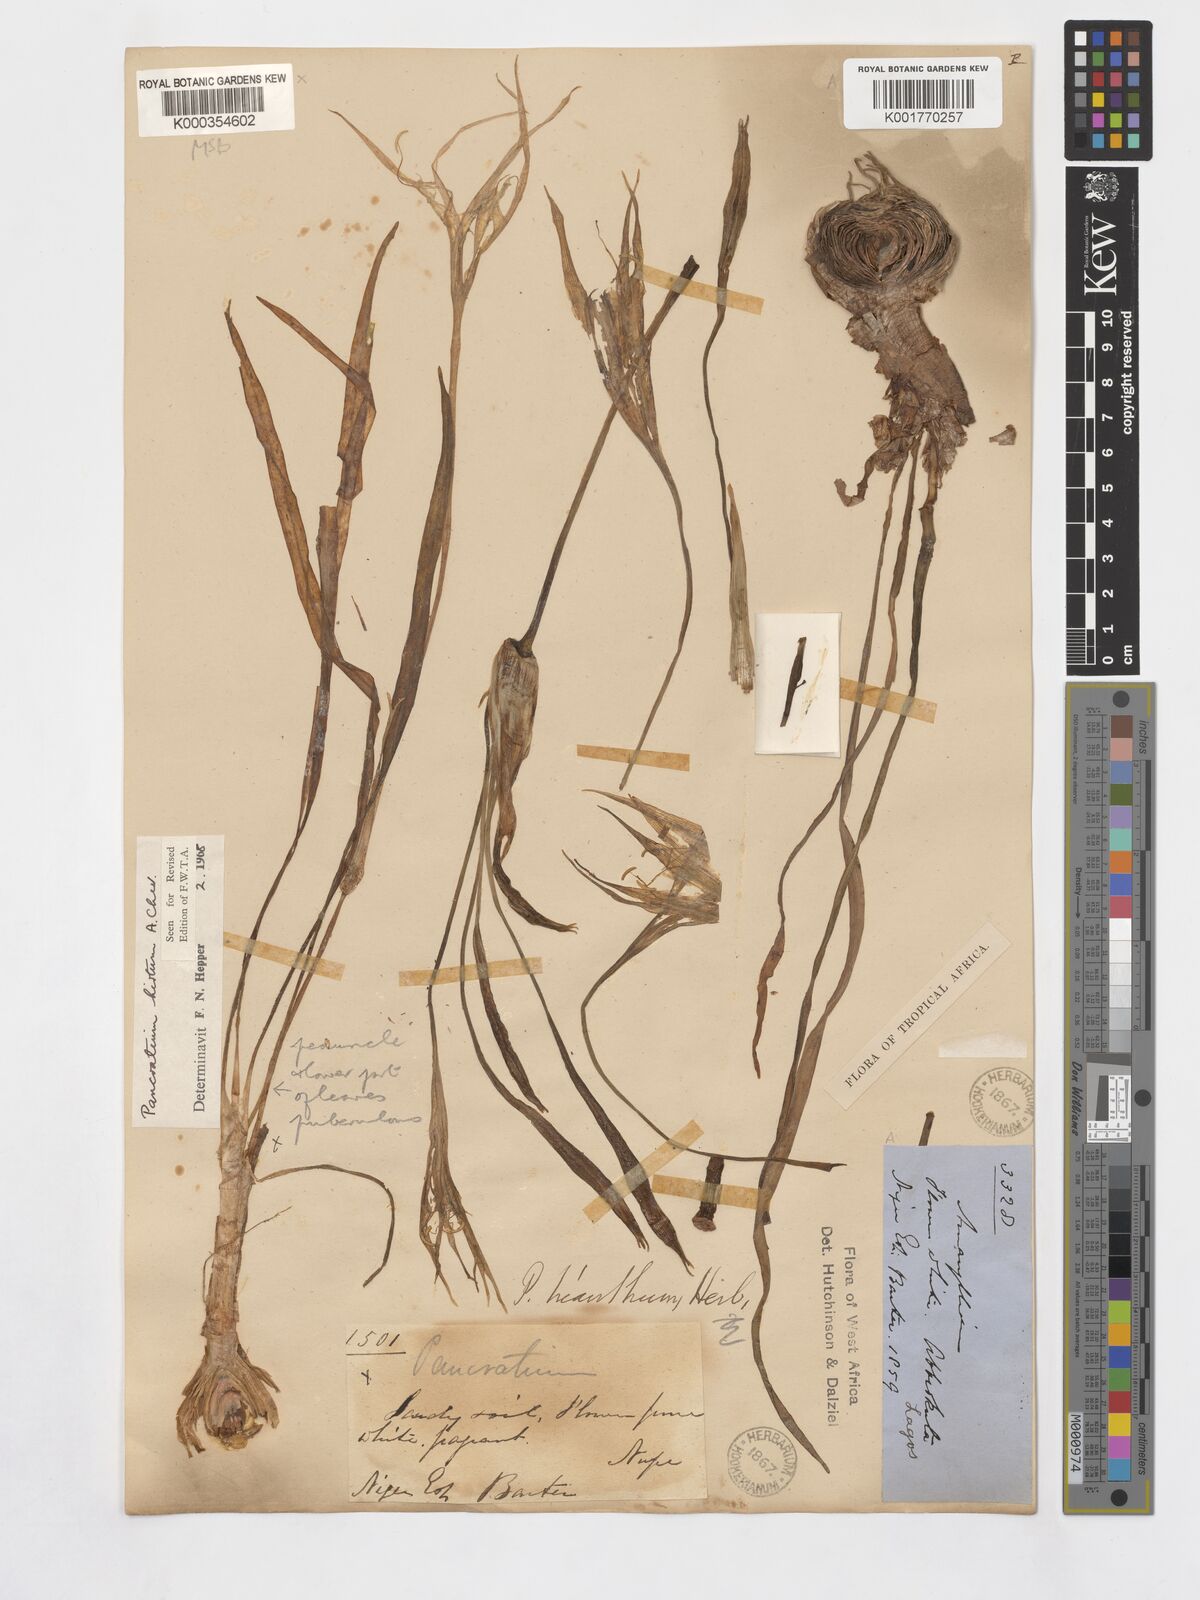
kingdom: Plantae
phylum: Tracheophyta
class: Liliopsida
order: Asparagales
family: Amaryllidaceae
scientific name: Amaryllidaceae
